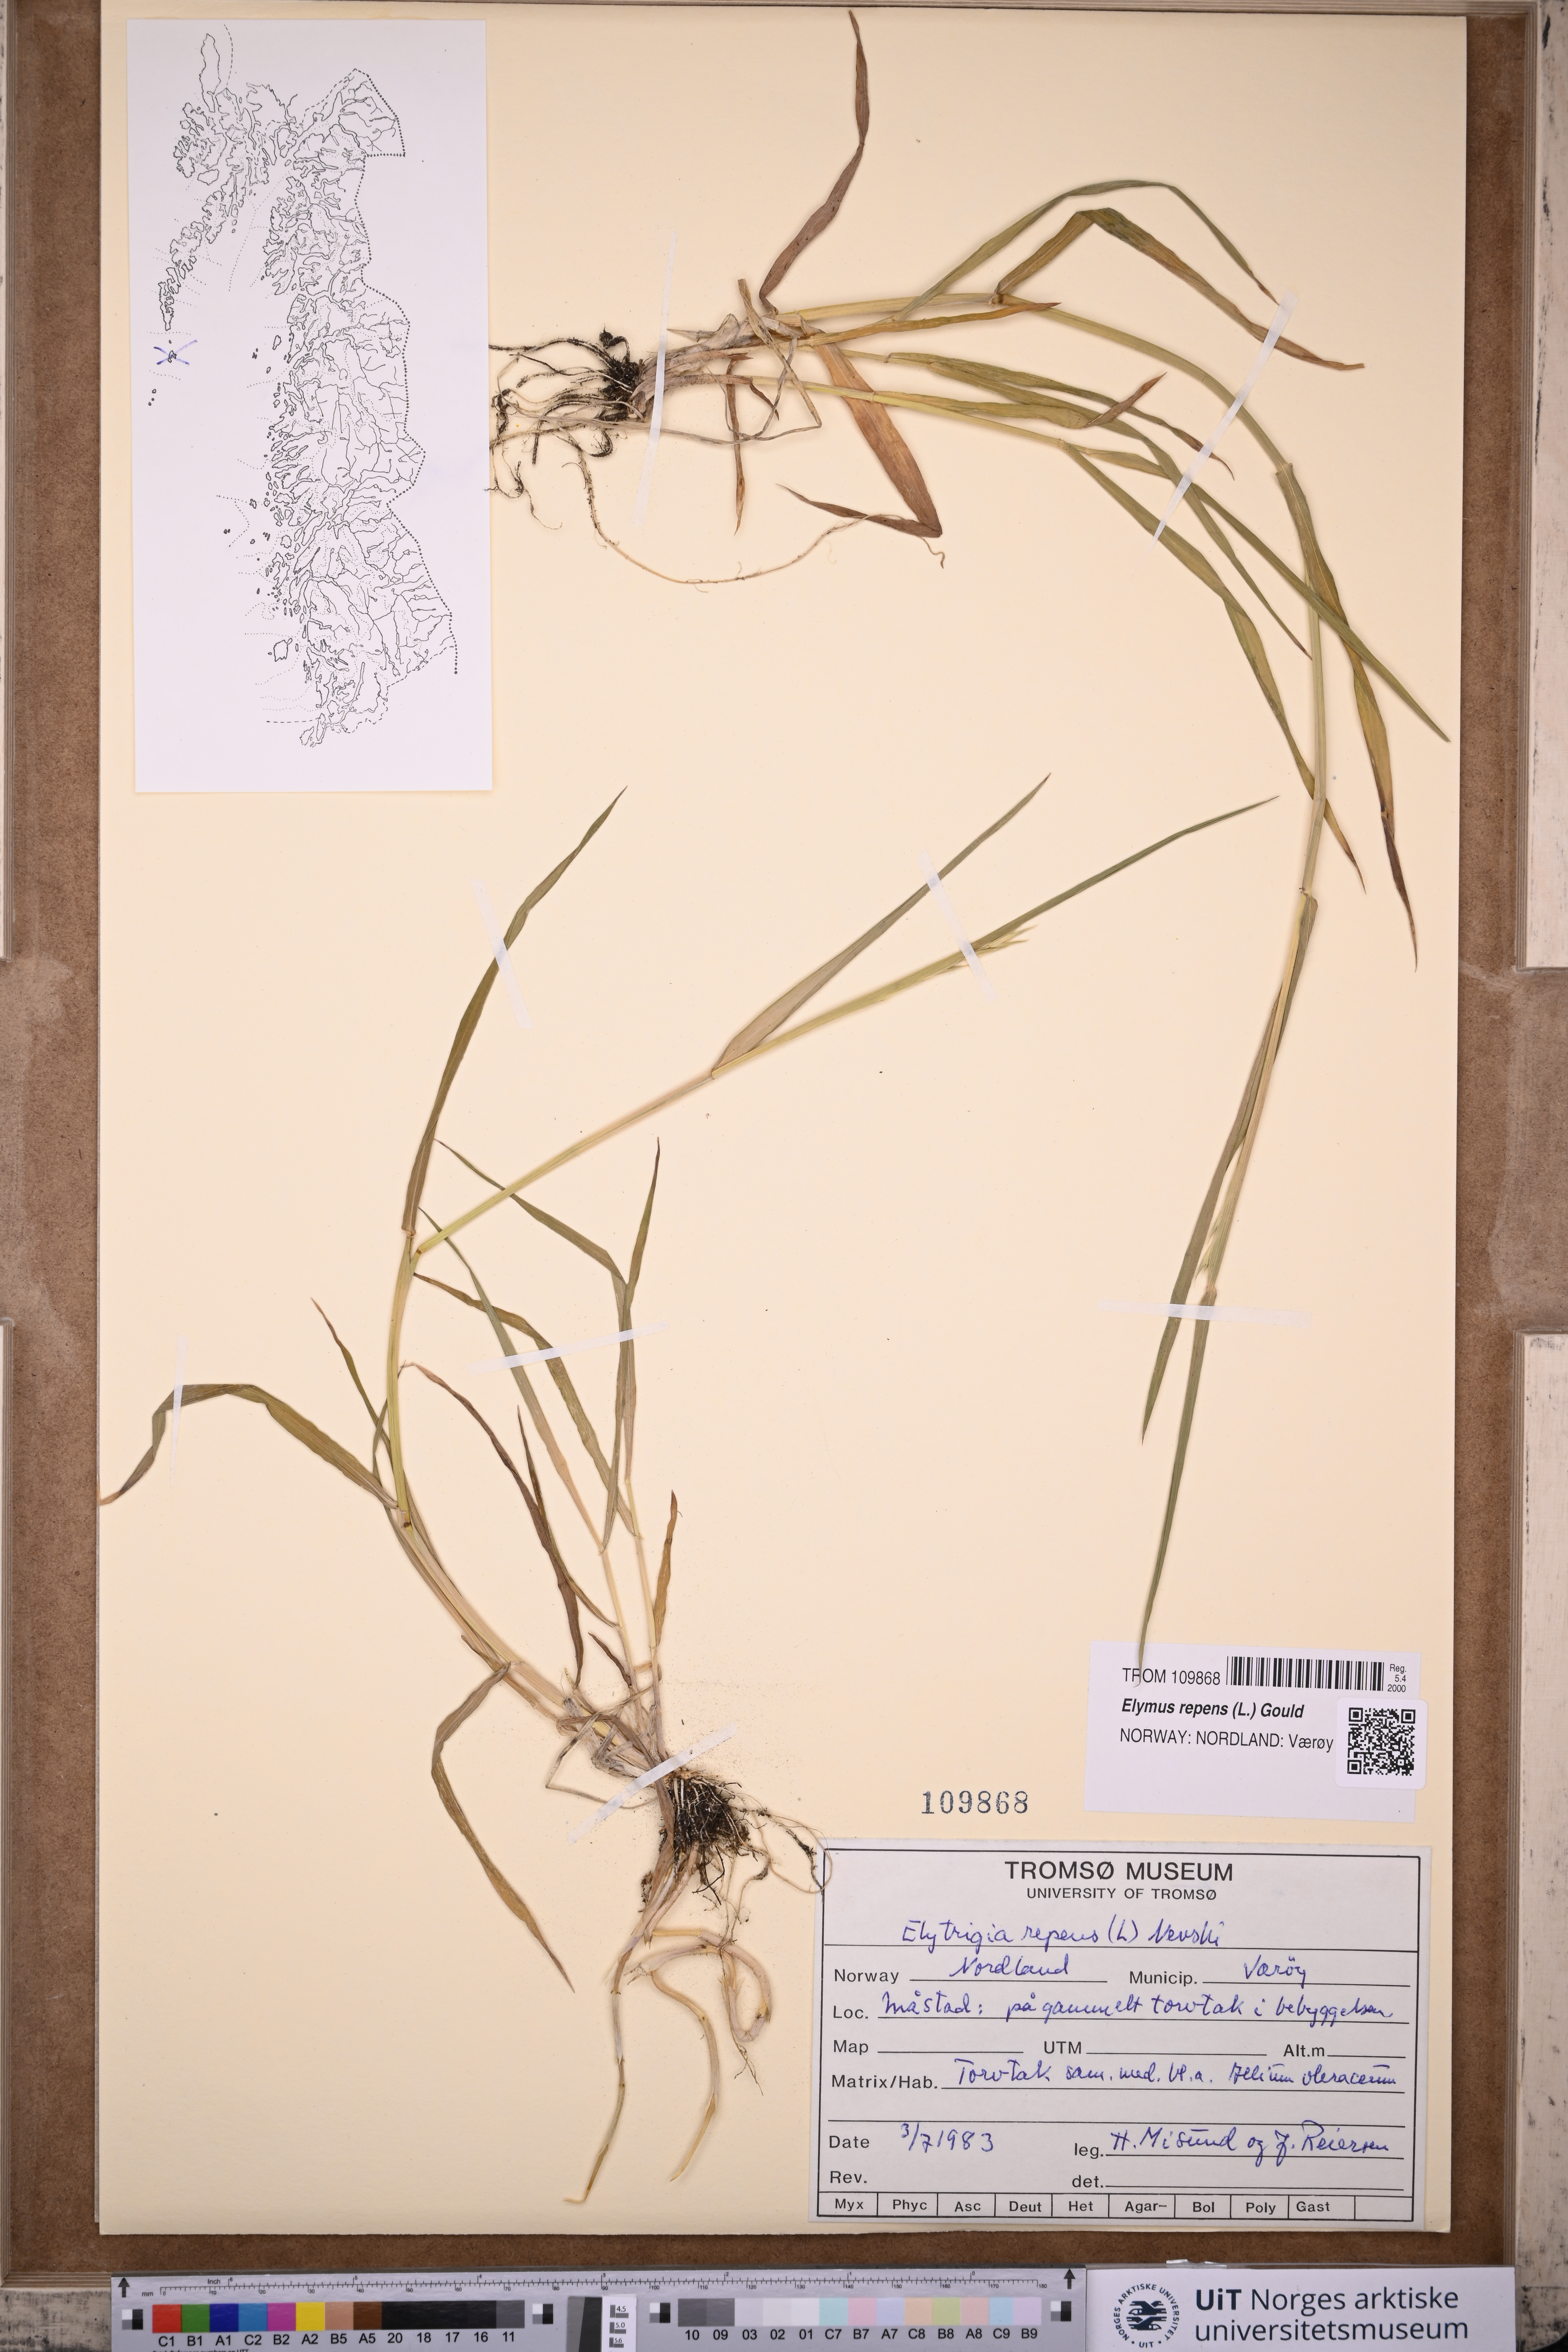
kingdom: Plantae
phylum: Tracheophyta
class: Liliopsida
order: Poales
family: Poaceae
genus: Elymus
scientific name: Elymus repens
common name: Quackgrass
